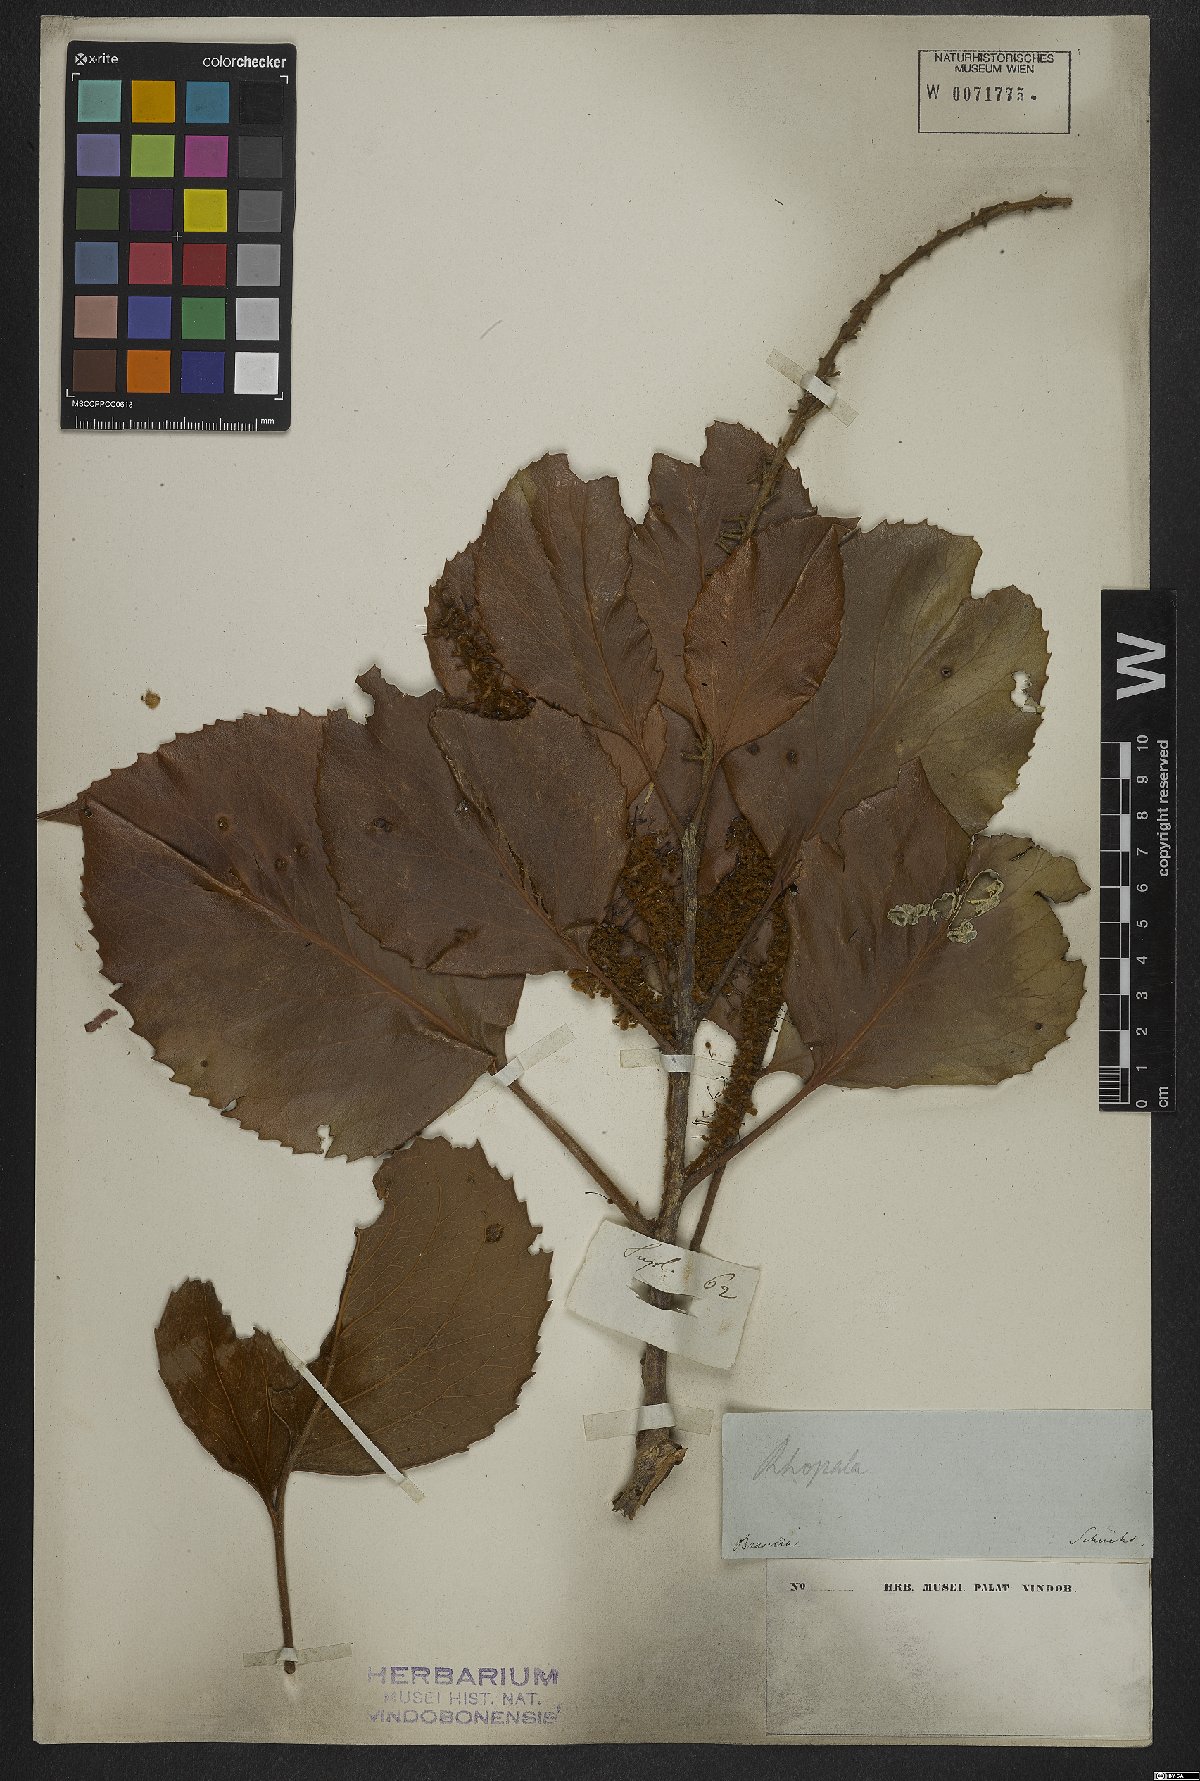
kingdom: Plantae
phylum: Tracheophyta
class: Magnoliopsida
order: Proteales
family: Proteaceae
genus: Roupala
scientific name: Roupala montana
